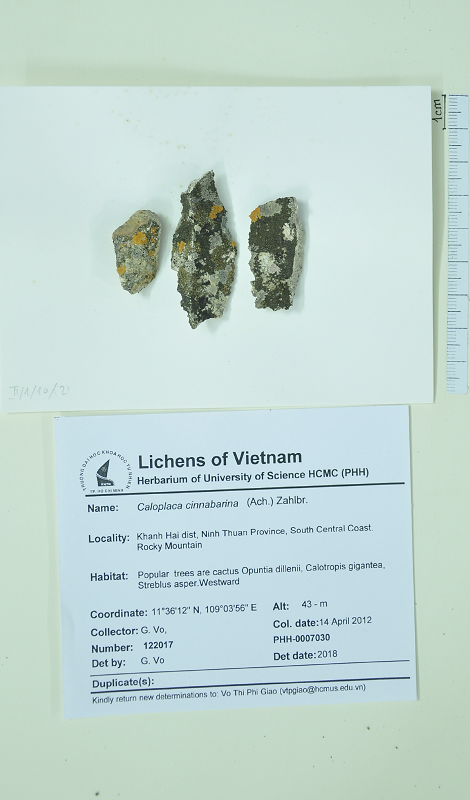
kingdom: Fungi
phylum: Ascomycota
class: Lecanoromycetes
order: Teloschistales
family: Teloschistaceae
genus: Neobrownliella
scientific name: Neobrownliella cinnabarina
